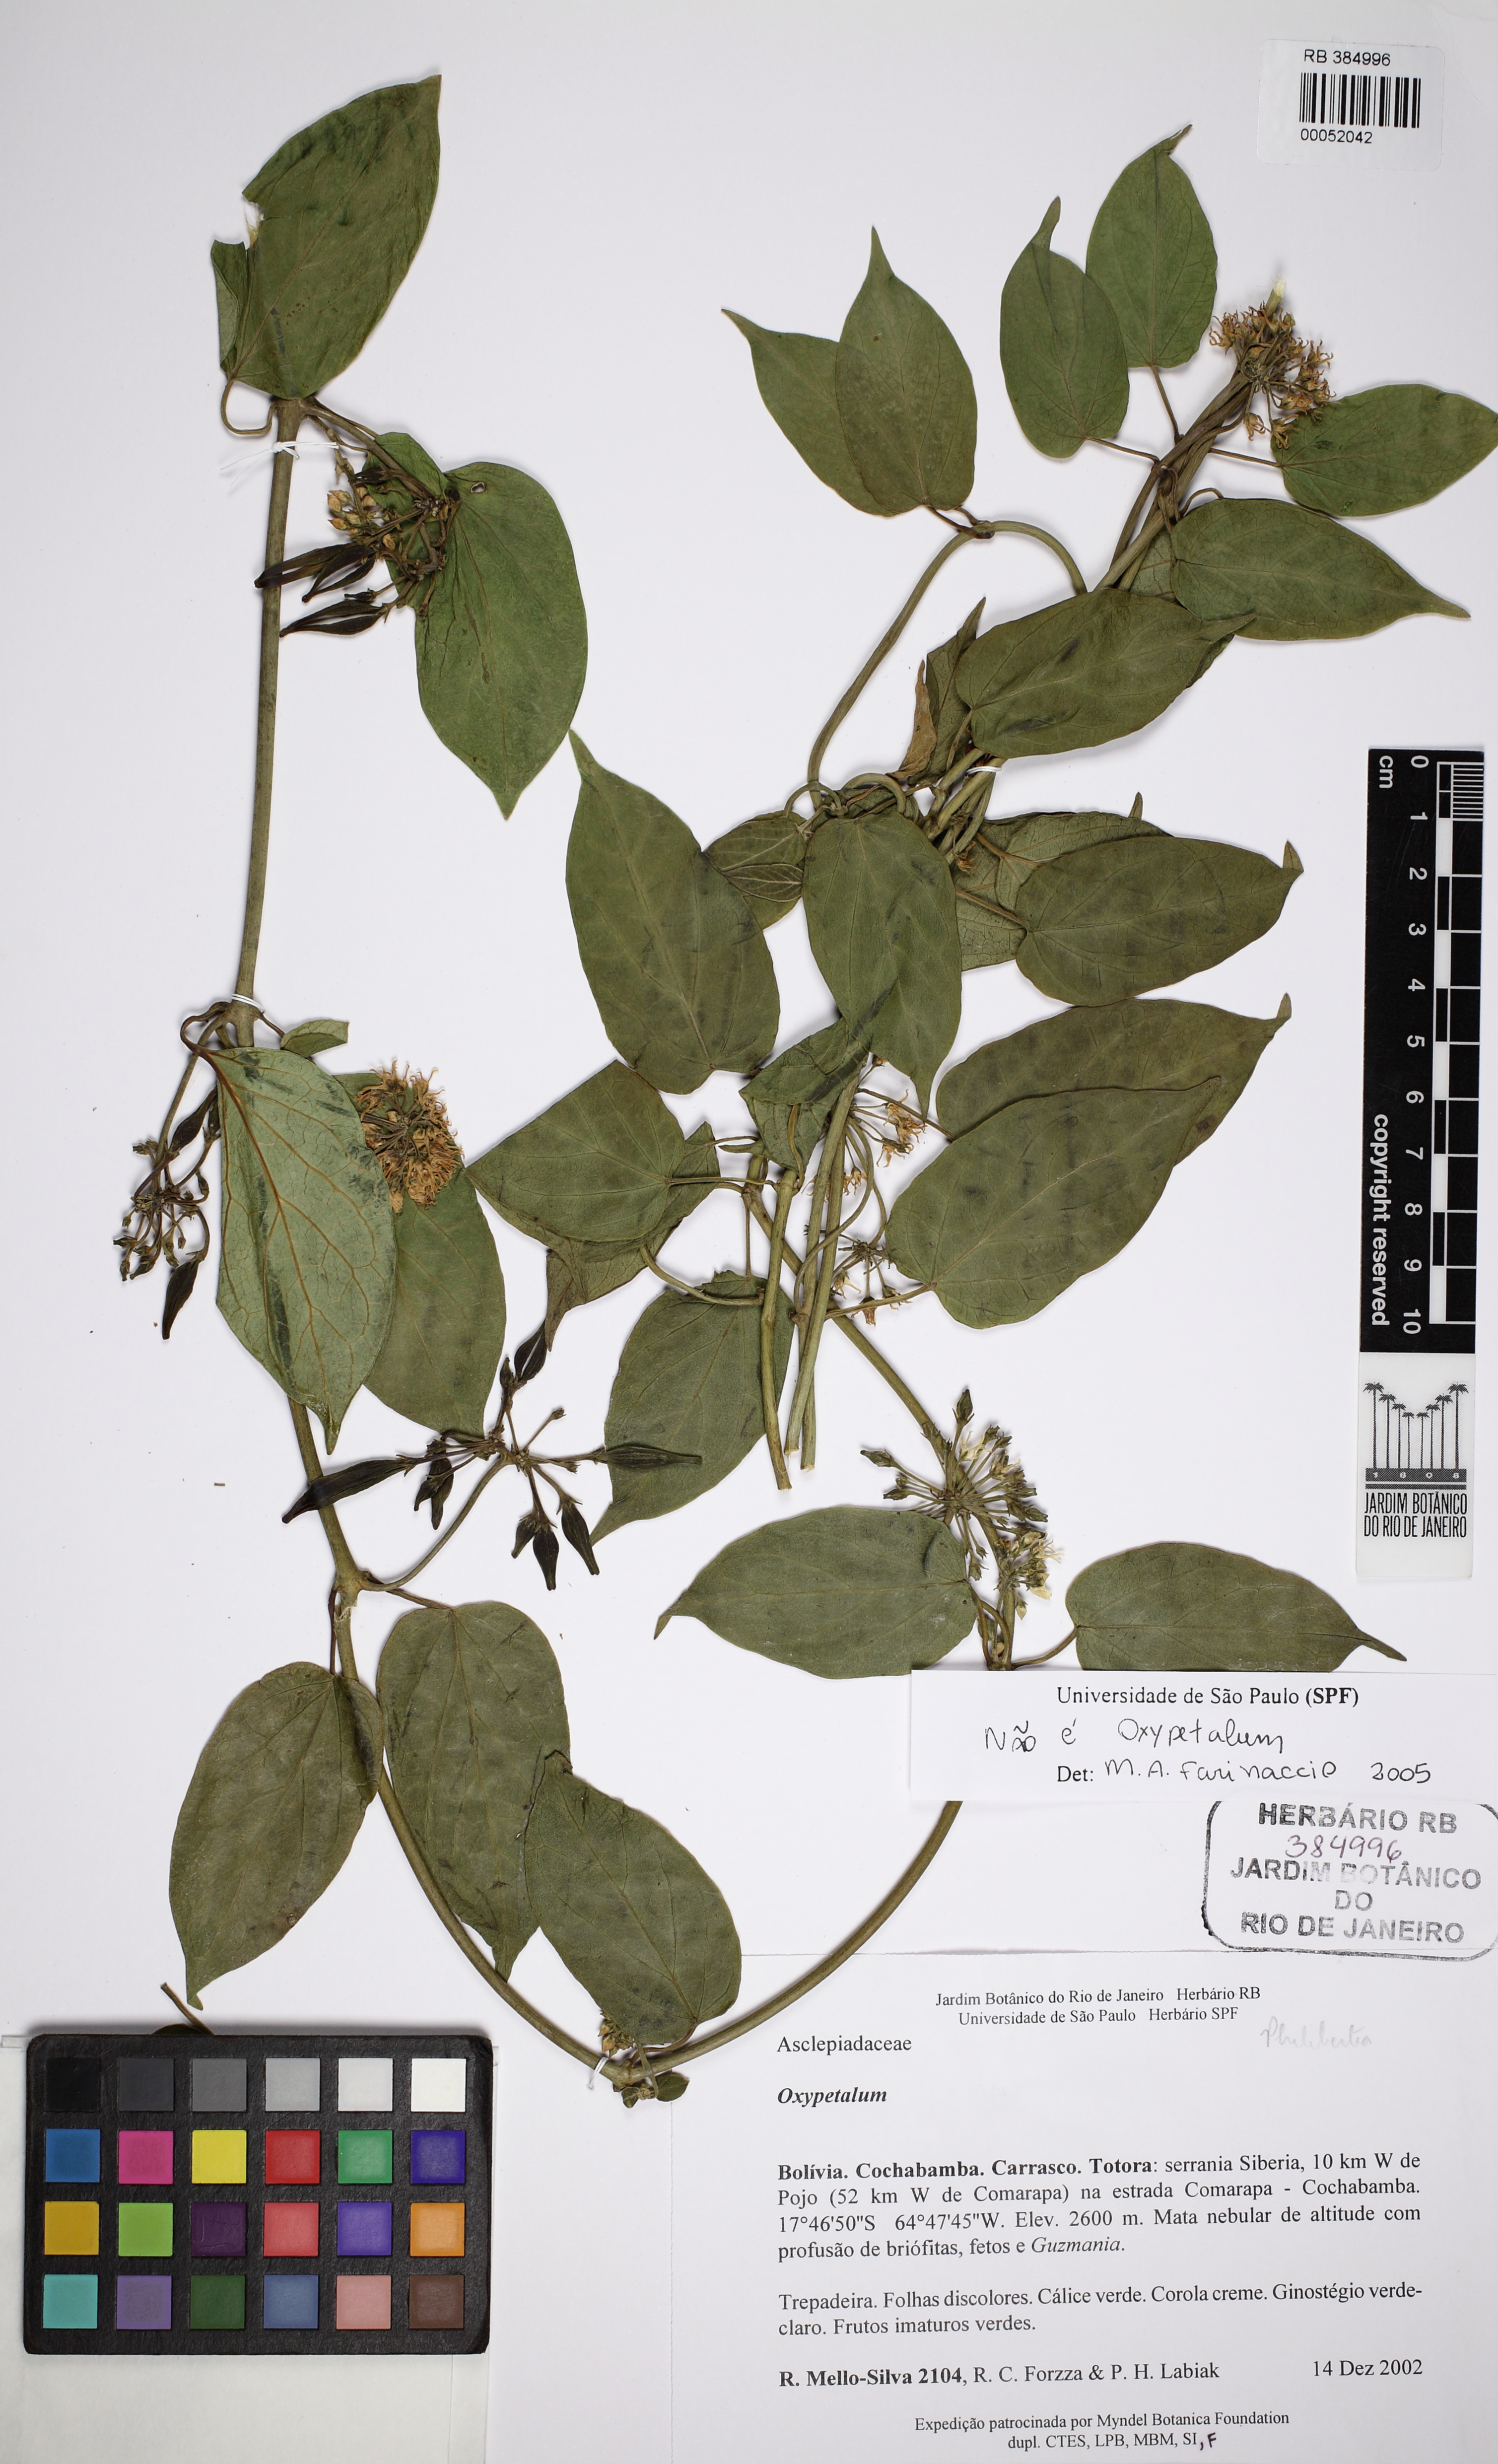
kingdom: Plantae
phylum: Tracheophyta
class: Magnoliopsida
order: Gentianales
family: Apocynaceae
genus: Oxypetalum
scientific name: Oxypetalum
